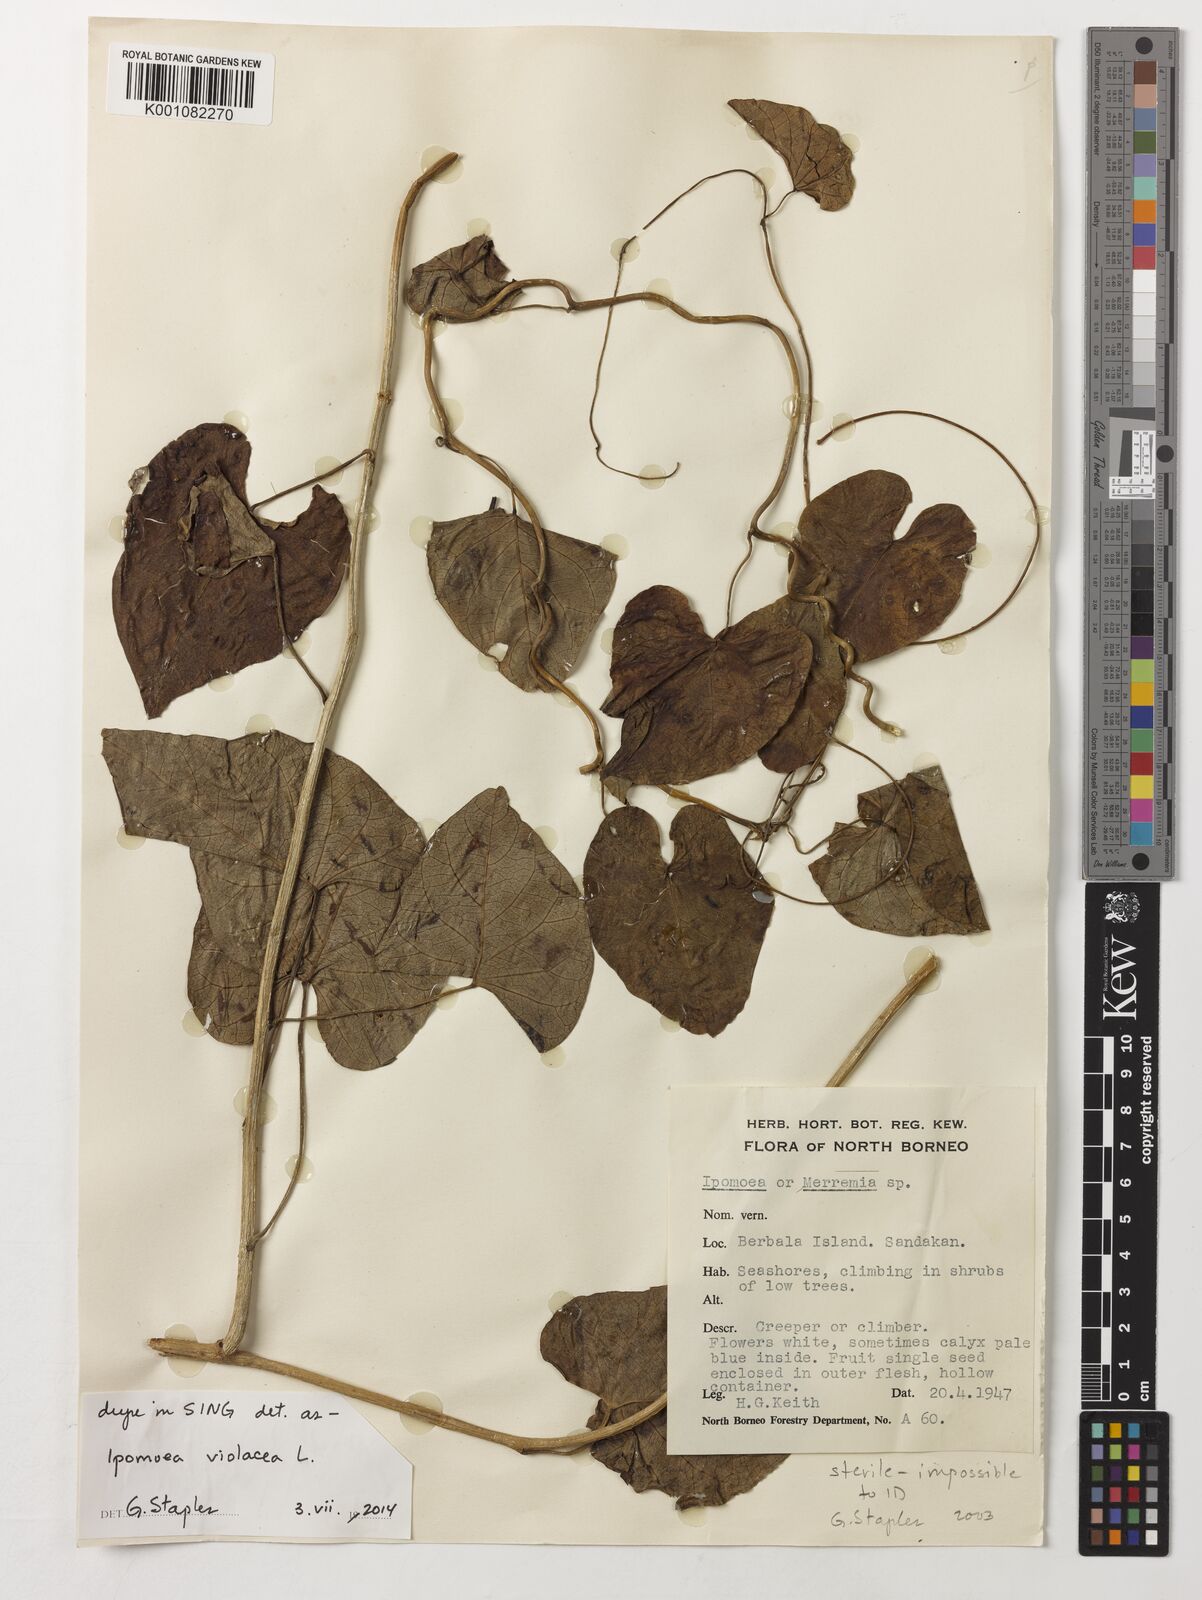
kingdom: Plantae
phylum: Tracheophyta
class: Magnoliopsida
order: Solanales
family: Convolvulaceae
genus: Ipomoea
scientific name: Ipomoea violacea
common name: Beach moonflower
